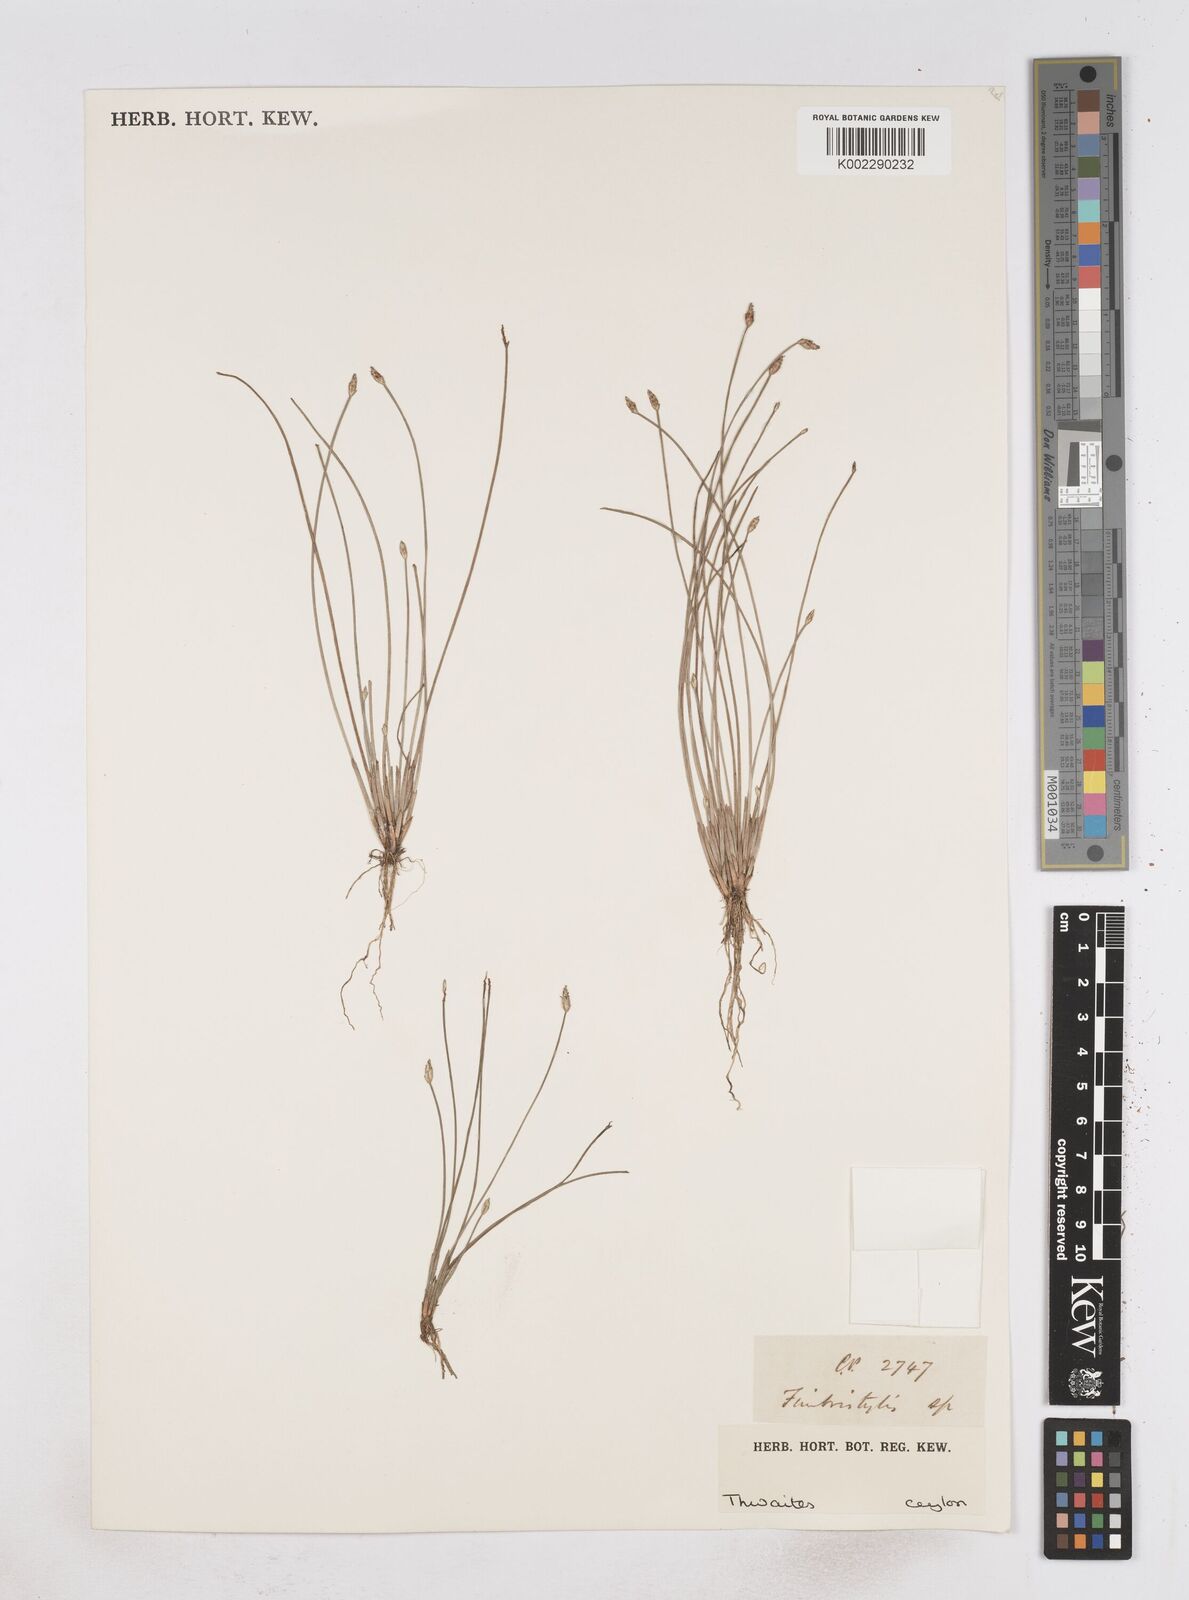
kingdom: Plantae
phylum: Tracheophyta
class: Liliopsida
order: Poales
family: Cyperaceae
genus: Fimbristylis
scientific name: Fimbristylis
